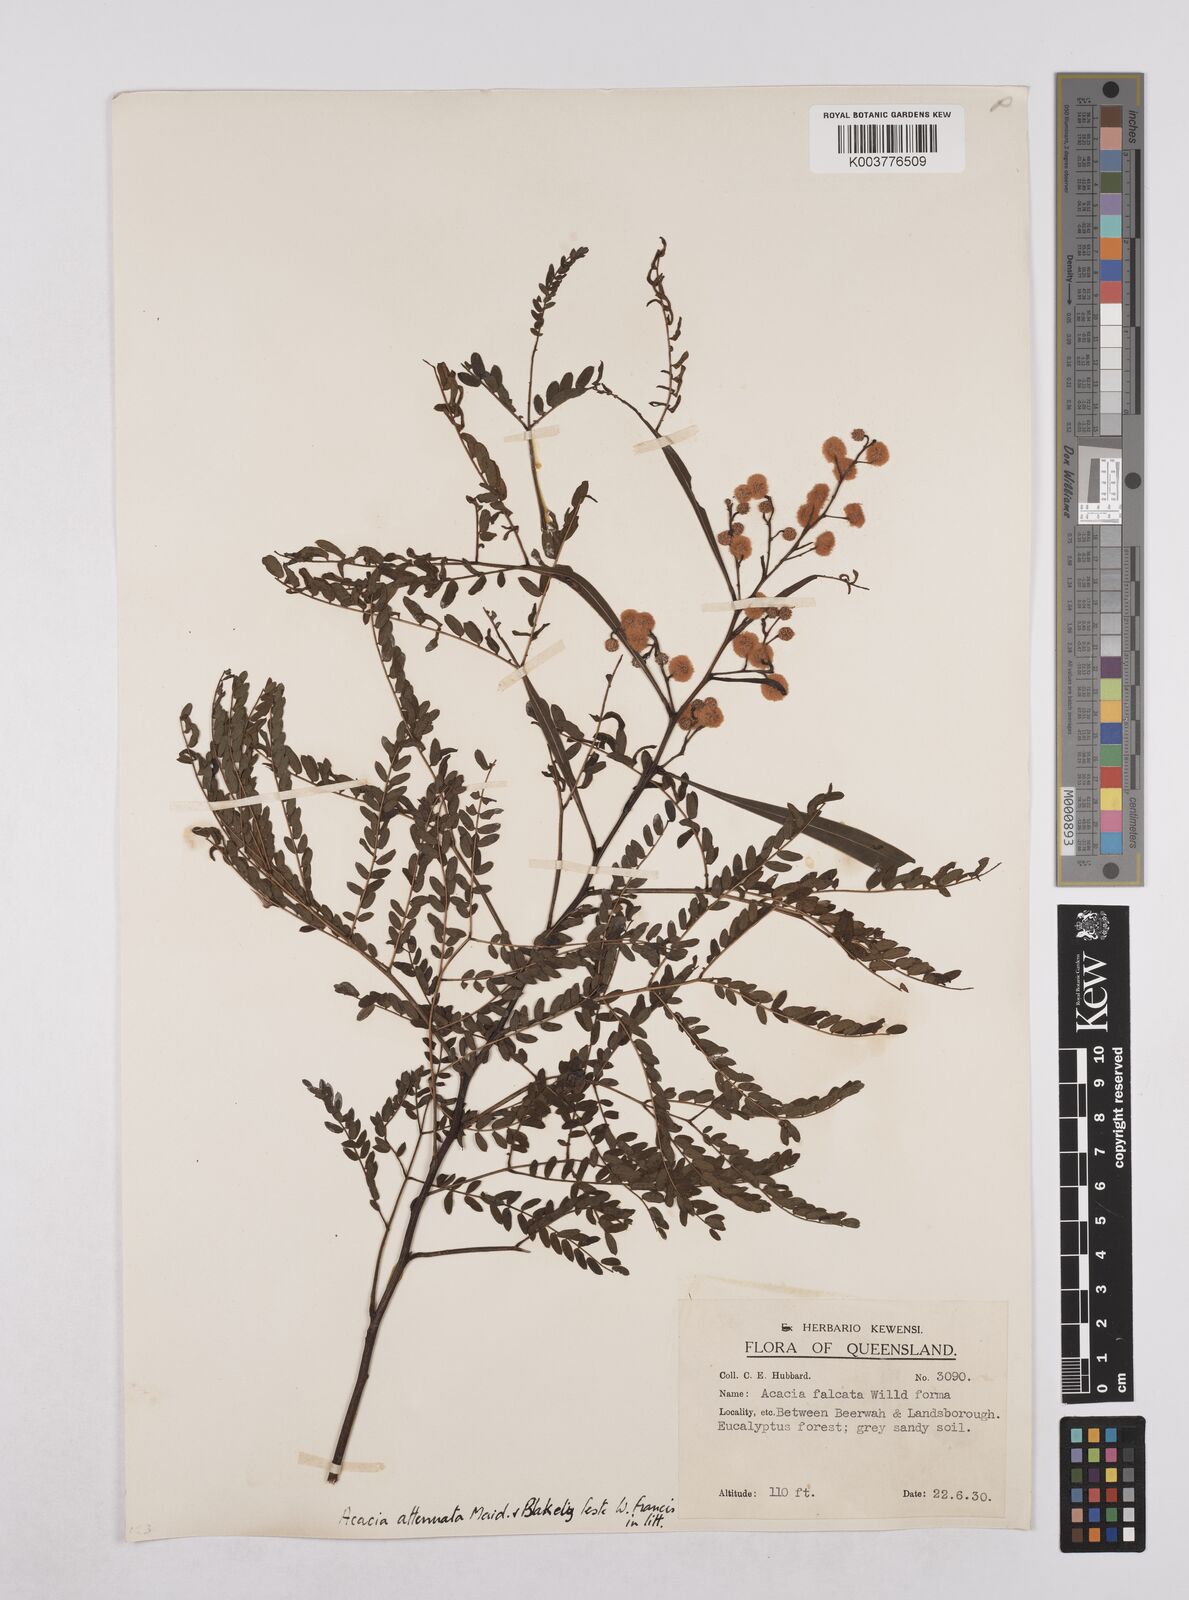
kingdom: Plantae
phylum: Tracheophyta
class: Magnoliopsida
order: Fabales
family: Fabaceae
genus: Acacia
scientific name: Acacia attenuata
